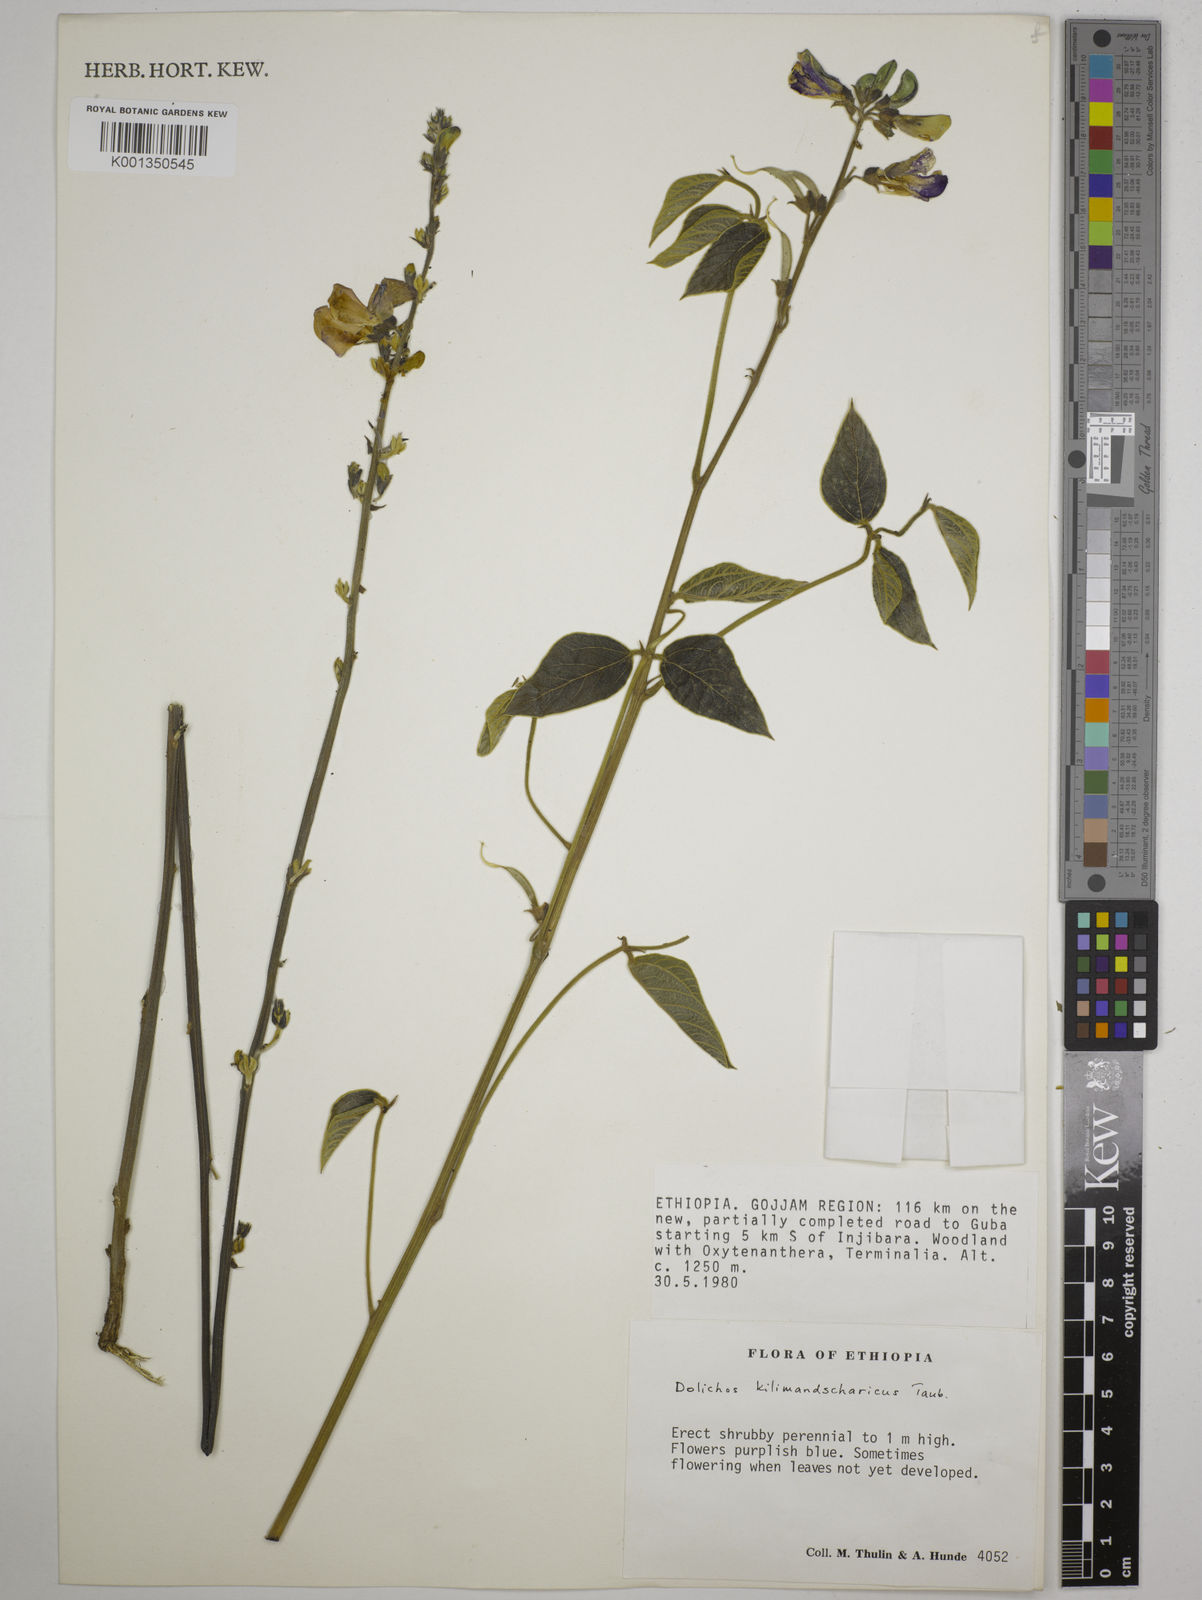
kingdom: Plantae
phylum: Tracheophyta
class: Magnoliopsida
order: Fabales
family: Fabaceae
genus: Dolichos
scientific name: Dolichos kilimandscharicus
